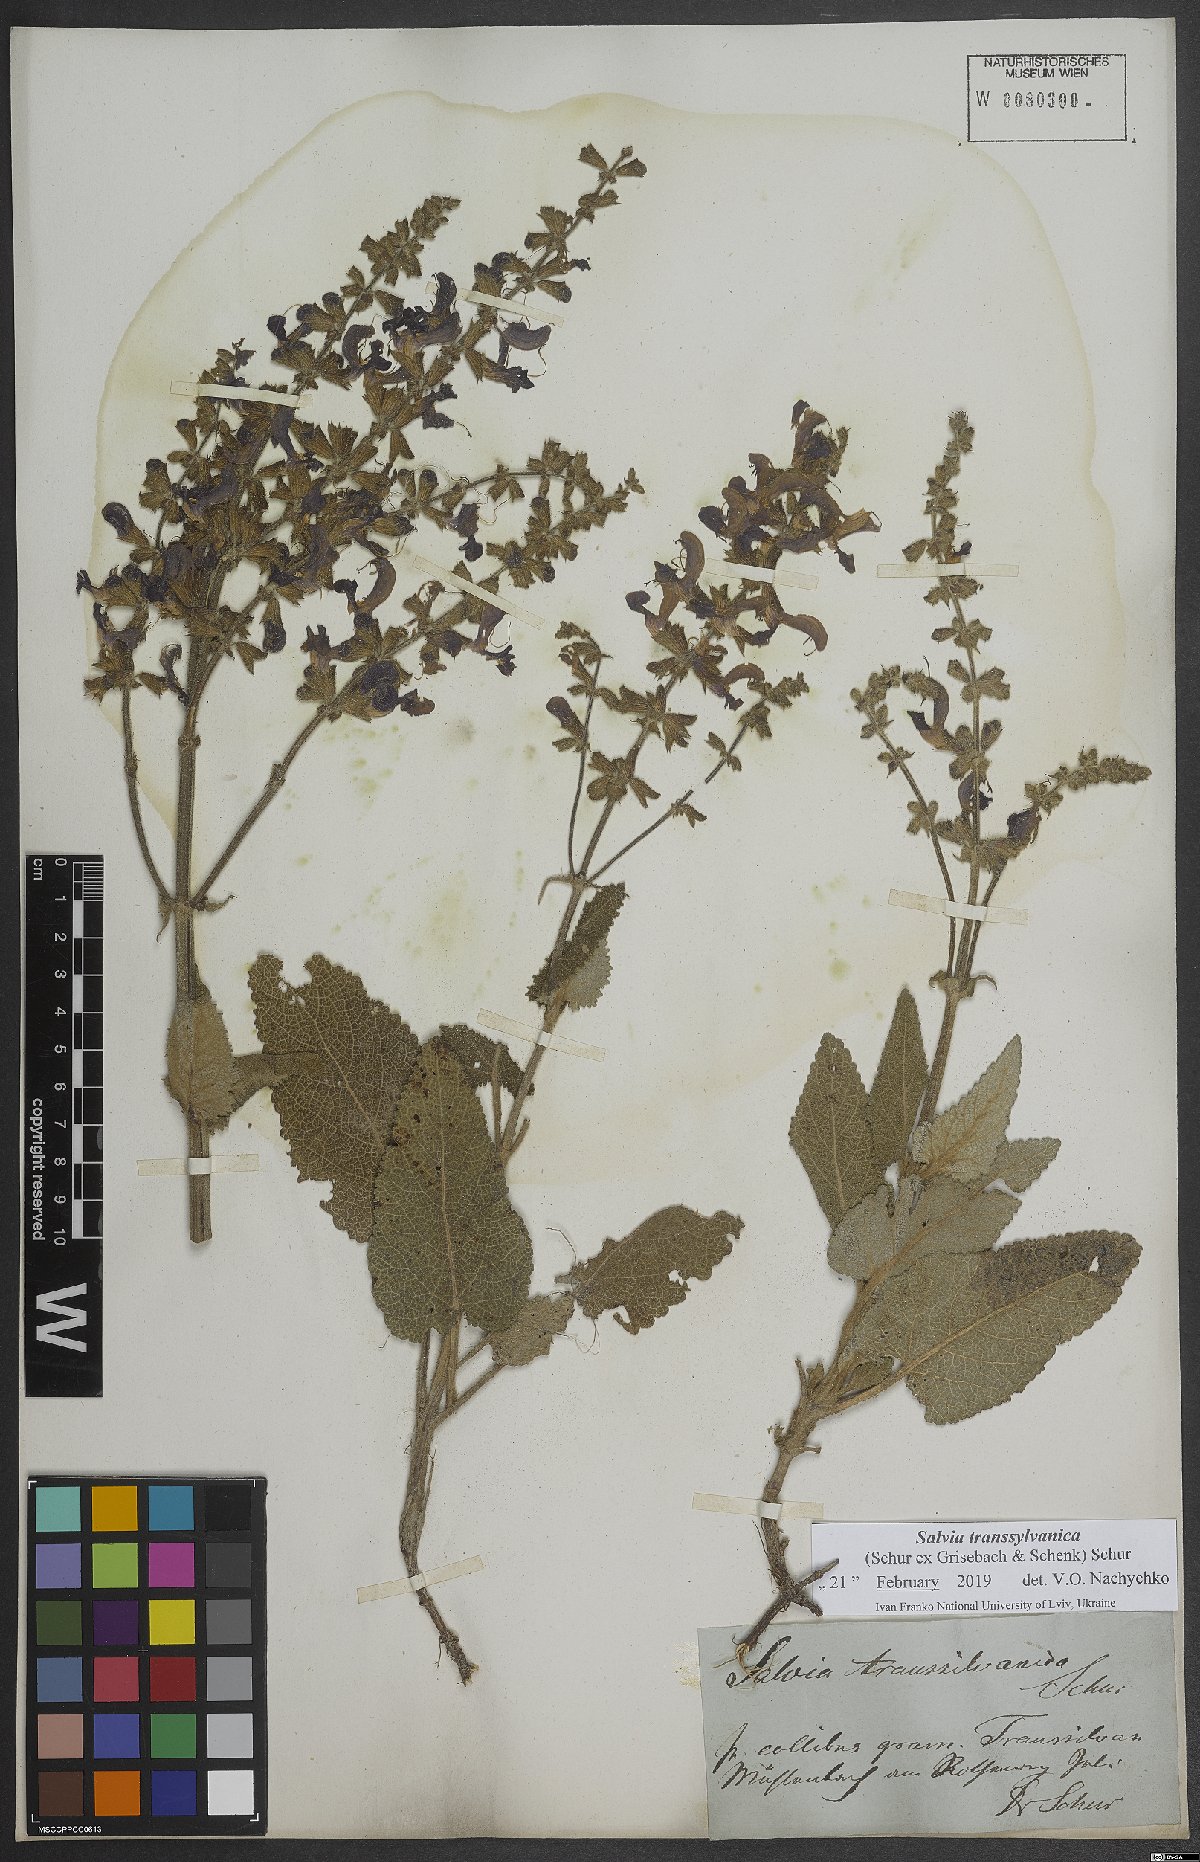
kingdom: Plantae
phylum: Tracheophyta
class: Magnoliopsida
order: Lamiales
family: Lamiaceae
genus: Salvia
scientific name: Salvia transsylvanica
